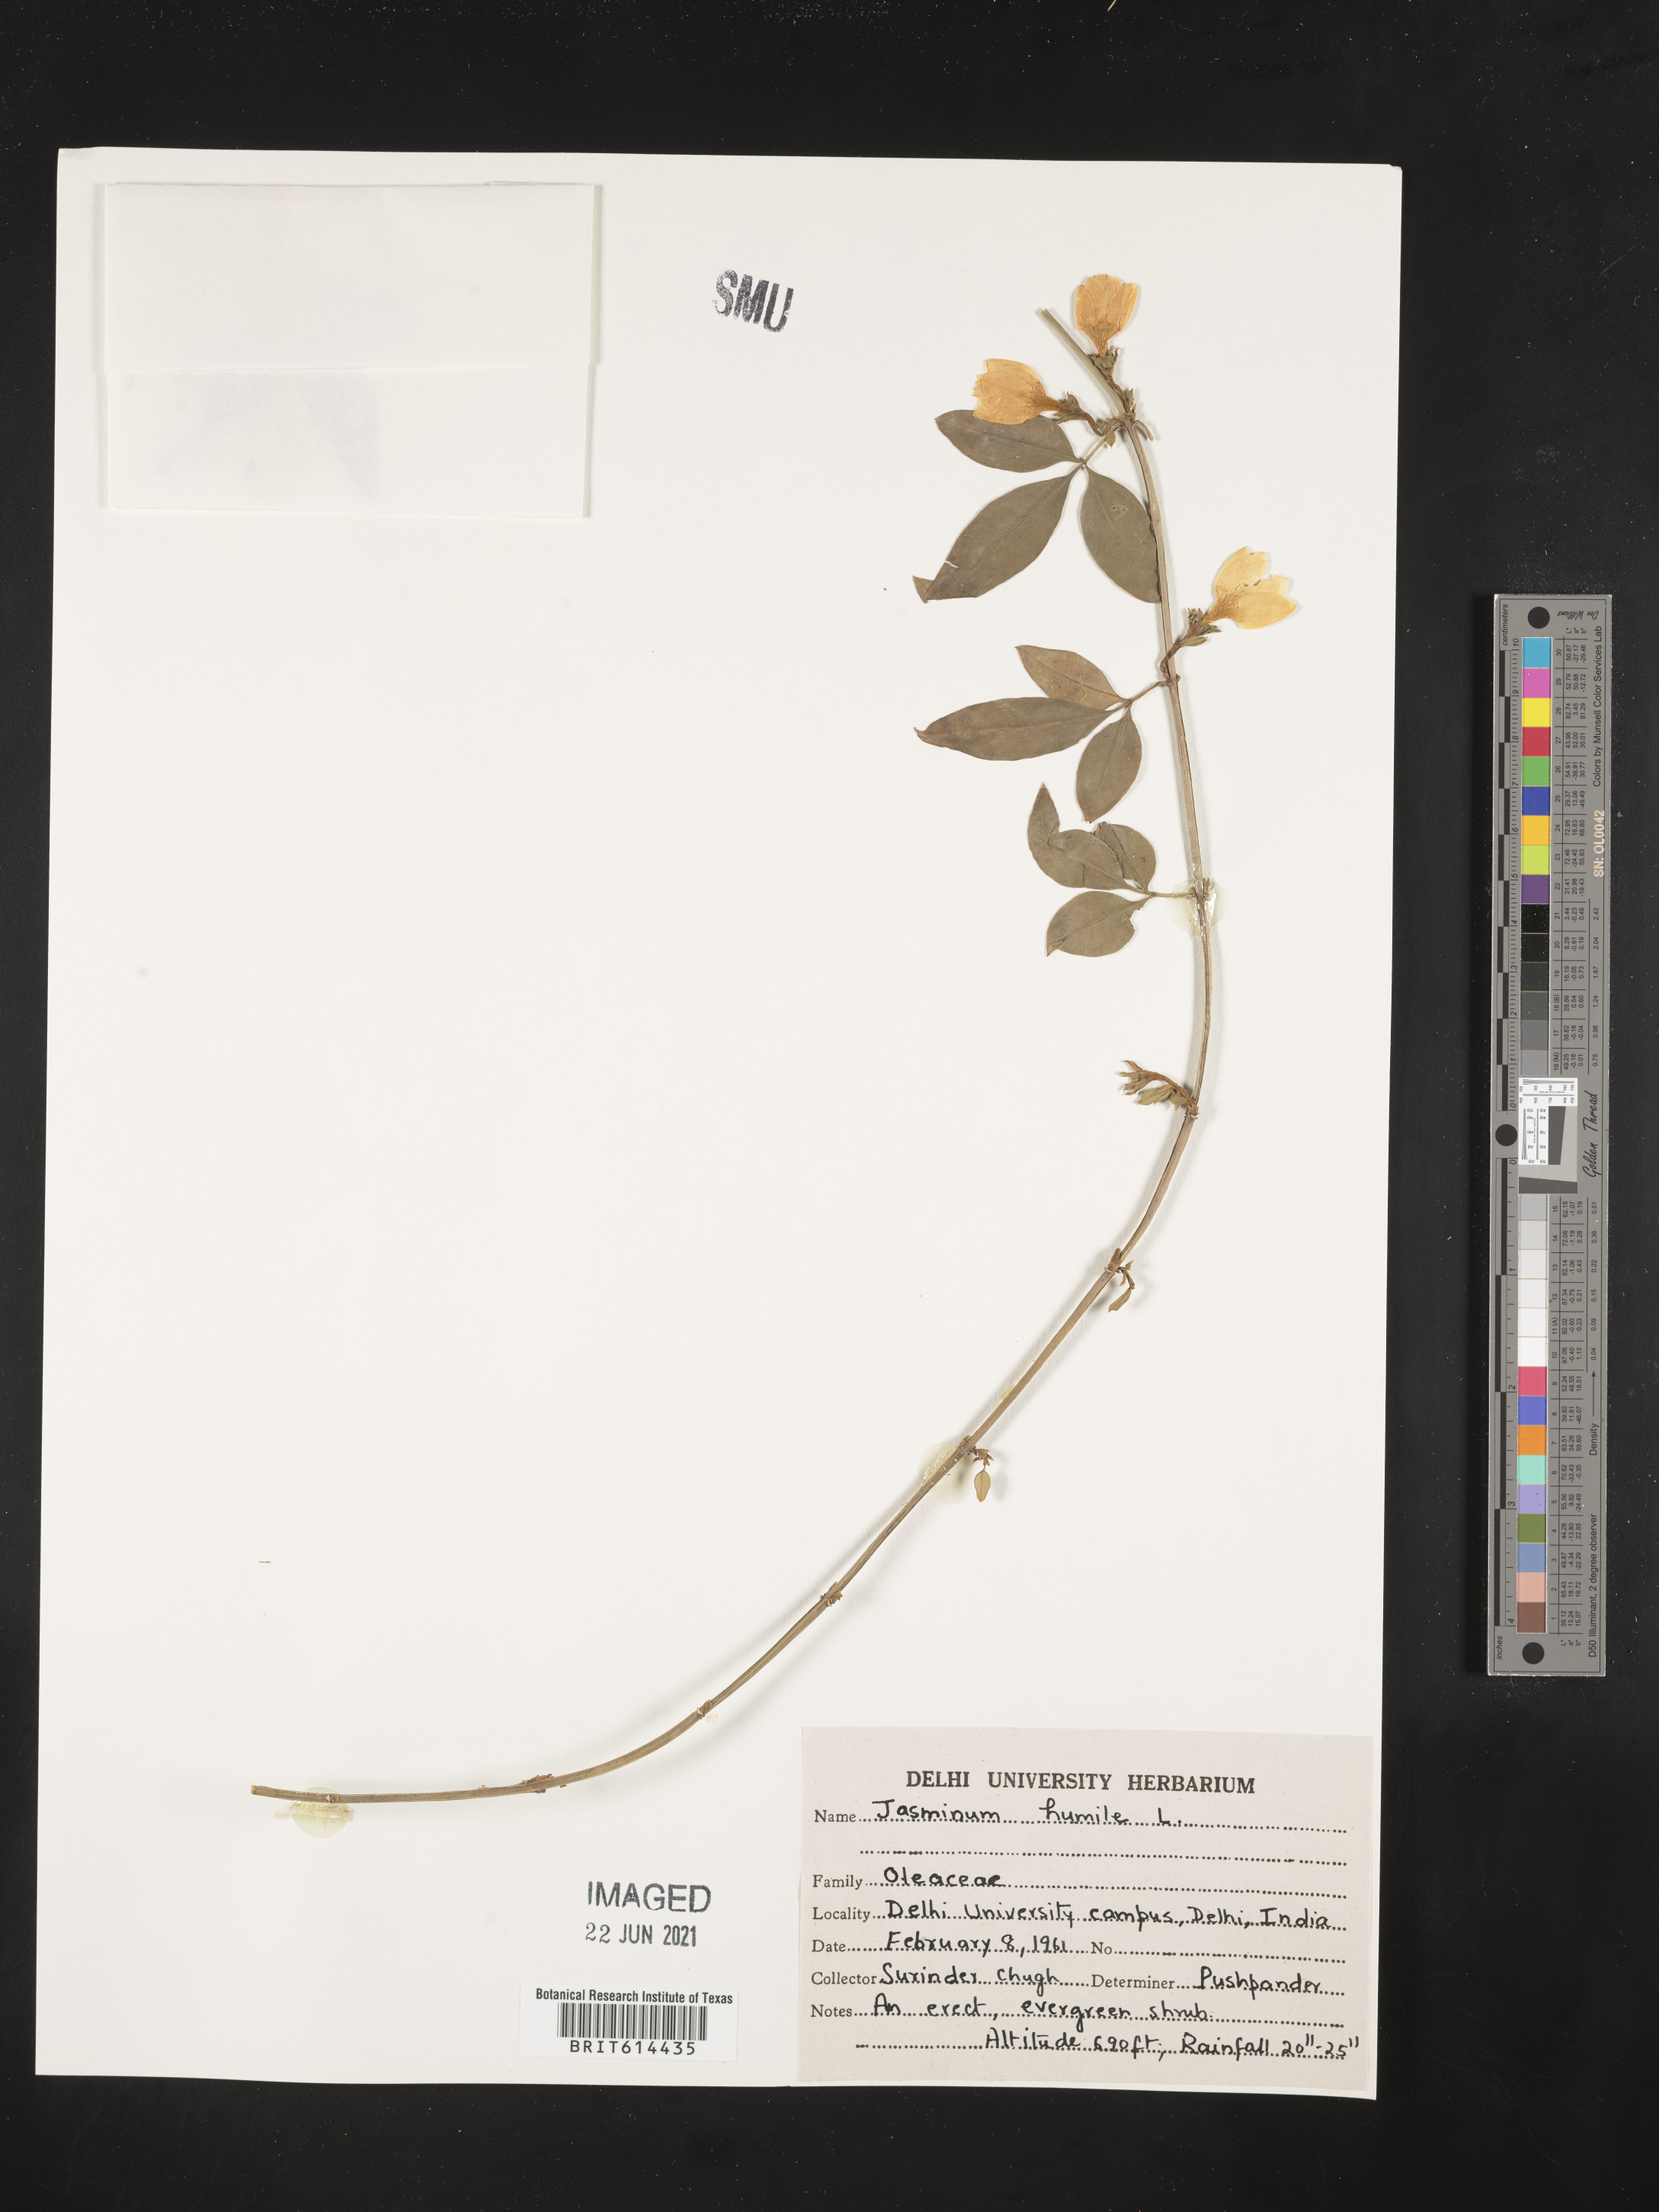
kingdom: Plantae
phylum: Tracheophyta
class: Magnoliopsida
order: Lamiales
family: Oleaceae
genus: Chrysojasminum
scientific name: Chrysojasminum humile
